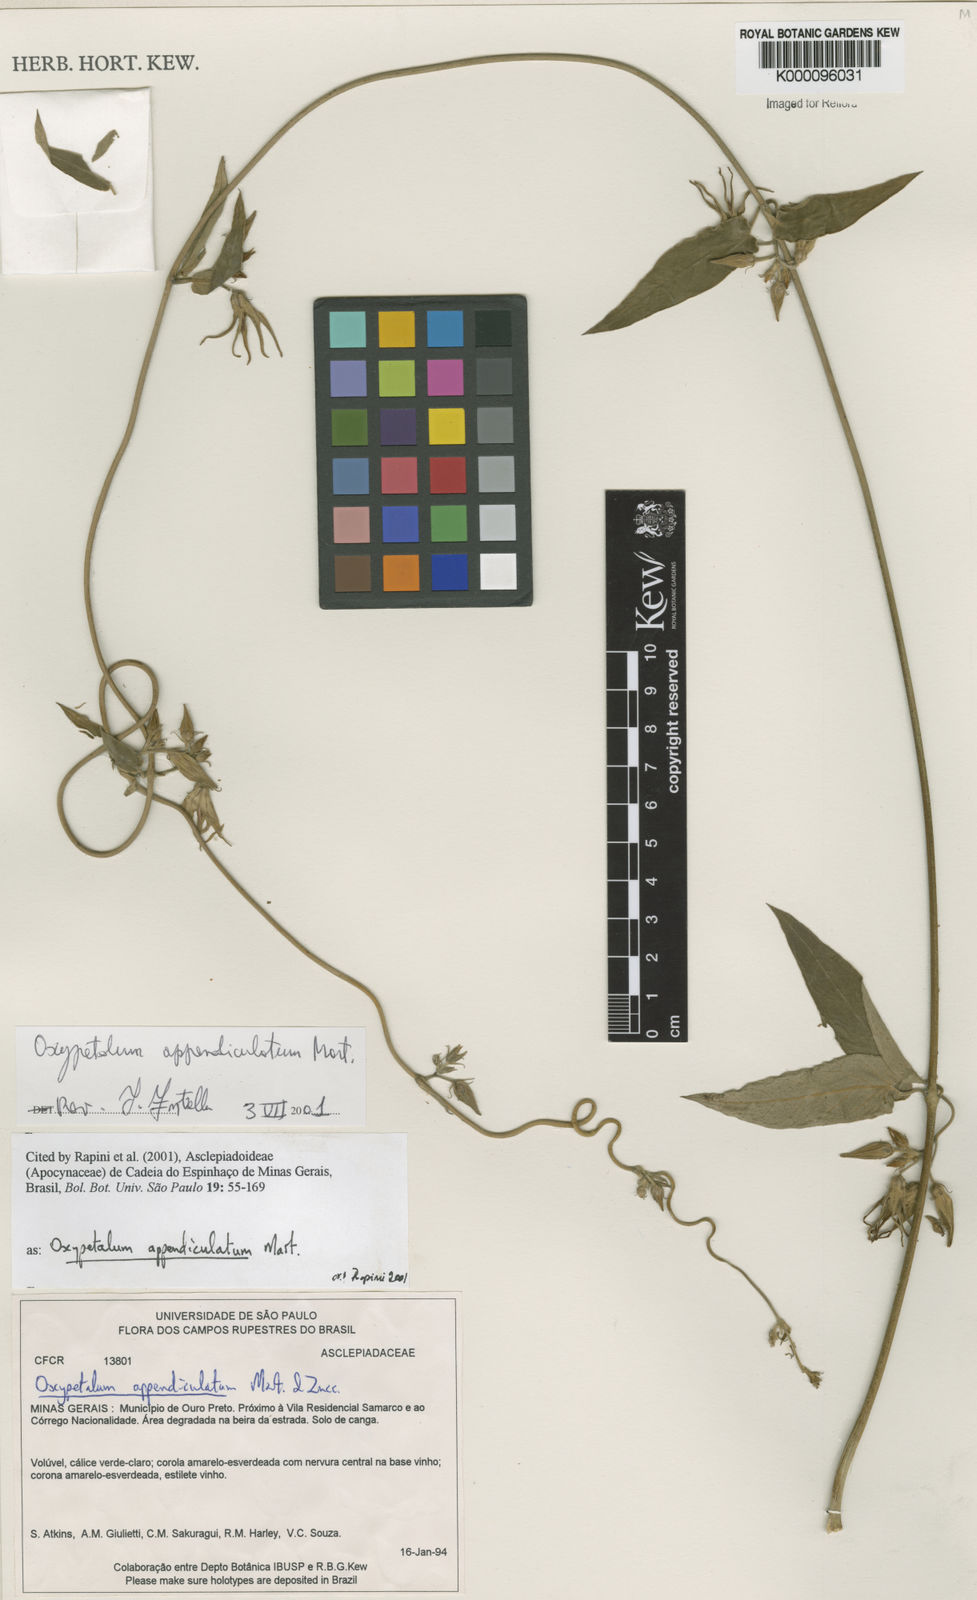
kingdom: Plantae
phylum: Tracheophyta
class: Magnoliopsida
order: Gentianales
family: Apocynaceae
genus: Oxypetalum
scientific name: Oxypetalum appendiculatum
